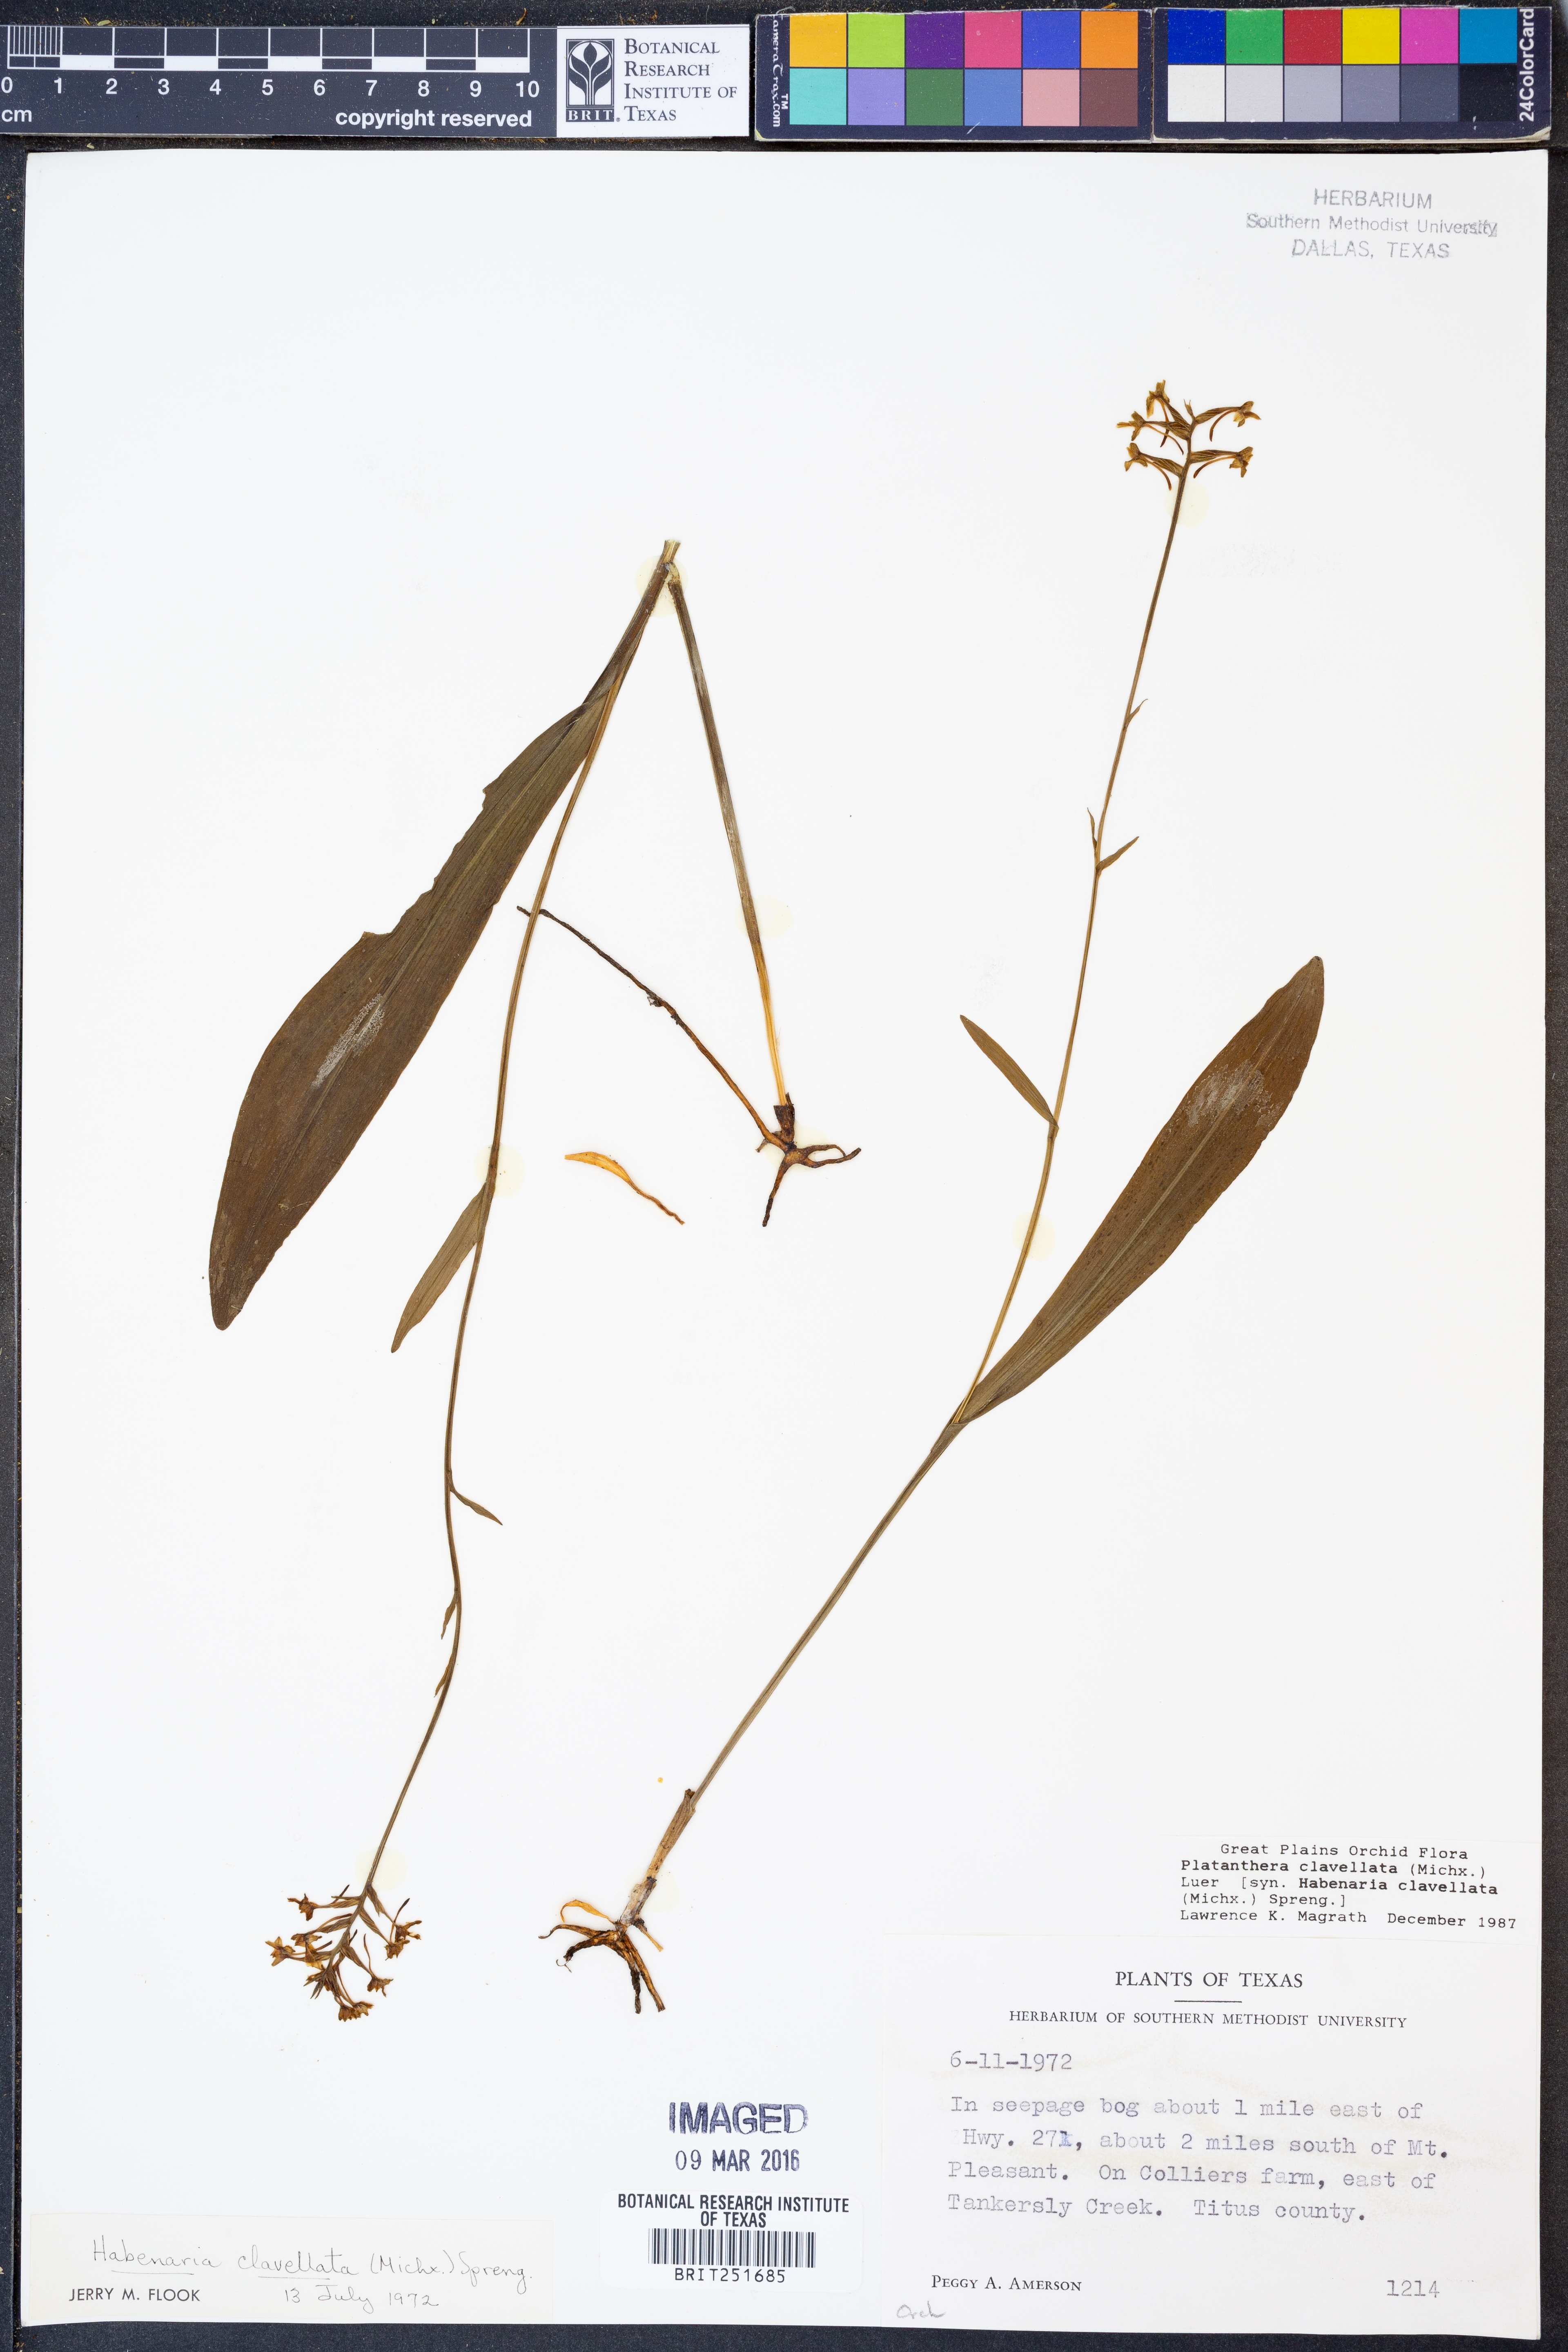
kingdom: Plantae
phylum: Tracheophyta
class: Liliopsida
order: Asparagales
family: Orchidaceae
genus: Platanthera
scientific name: Platanthera clavellata
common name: Club-spur orchid
